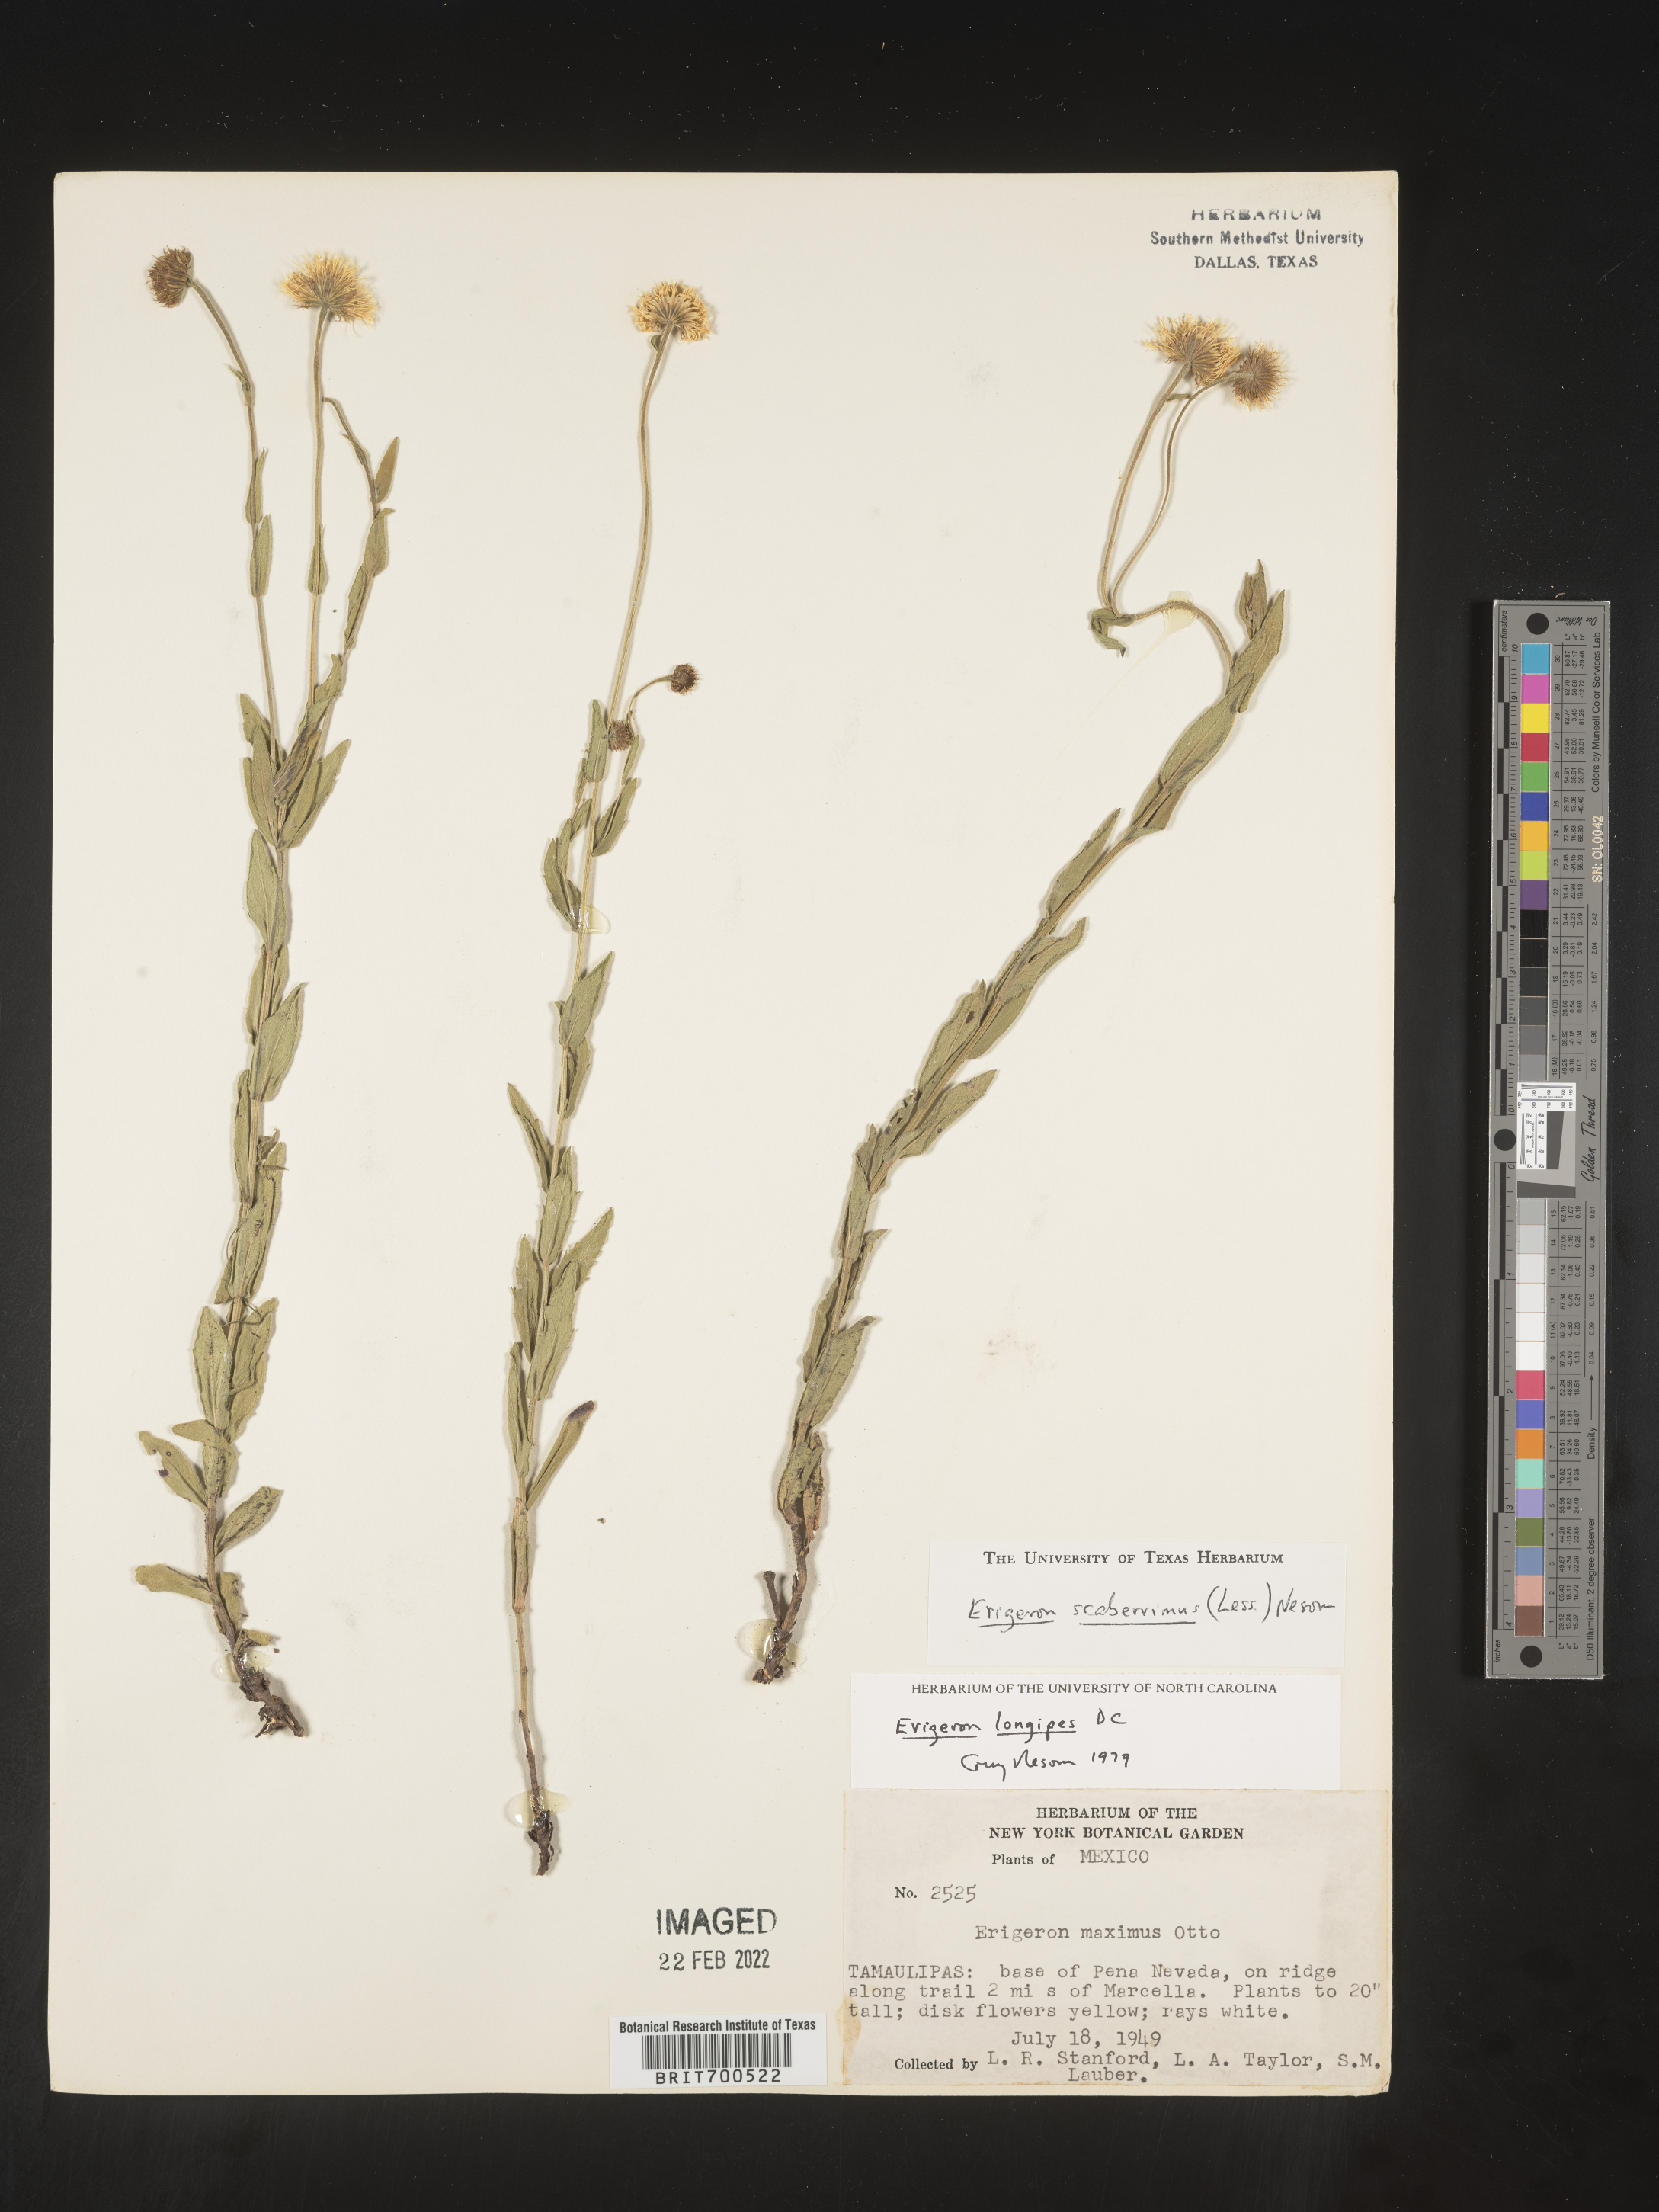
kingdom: Plantae
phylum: Tracheophyta
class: Magnoliopsida
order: Asterales
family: Asteraceae
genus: Erigeron
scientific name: Erigeron veracruzensis
